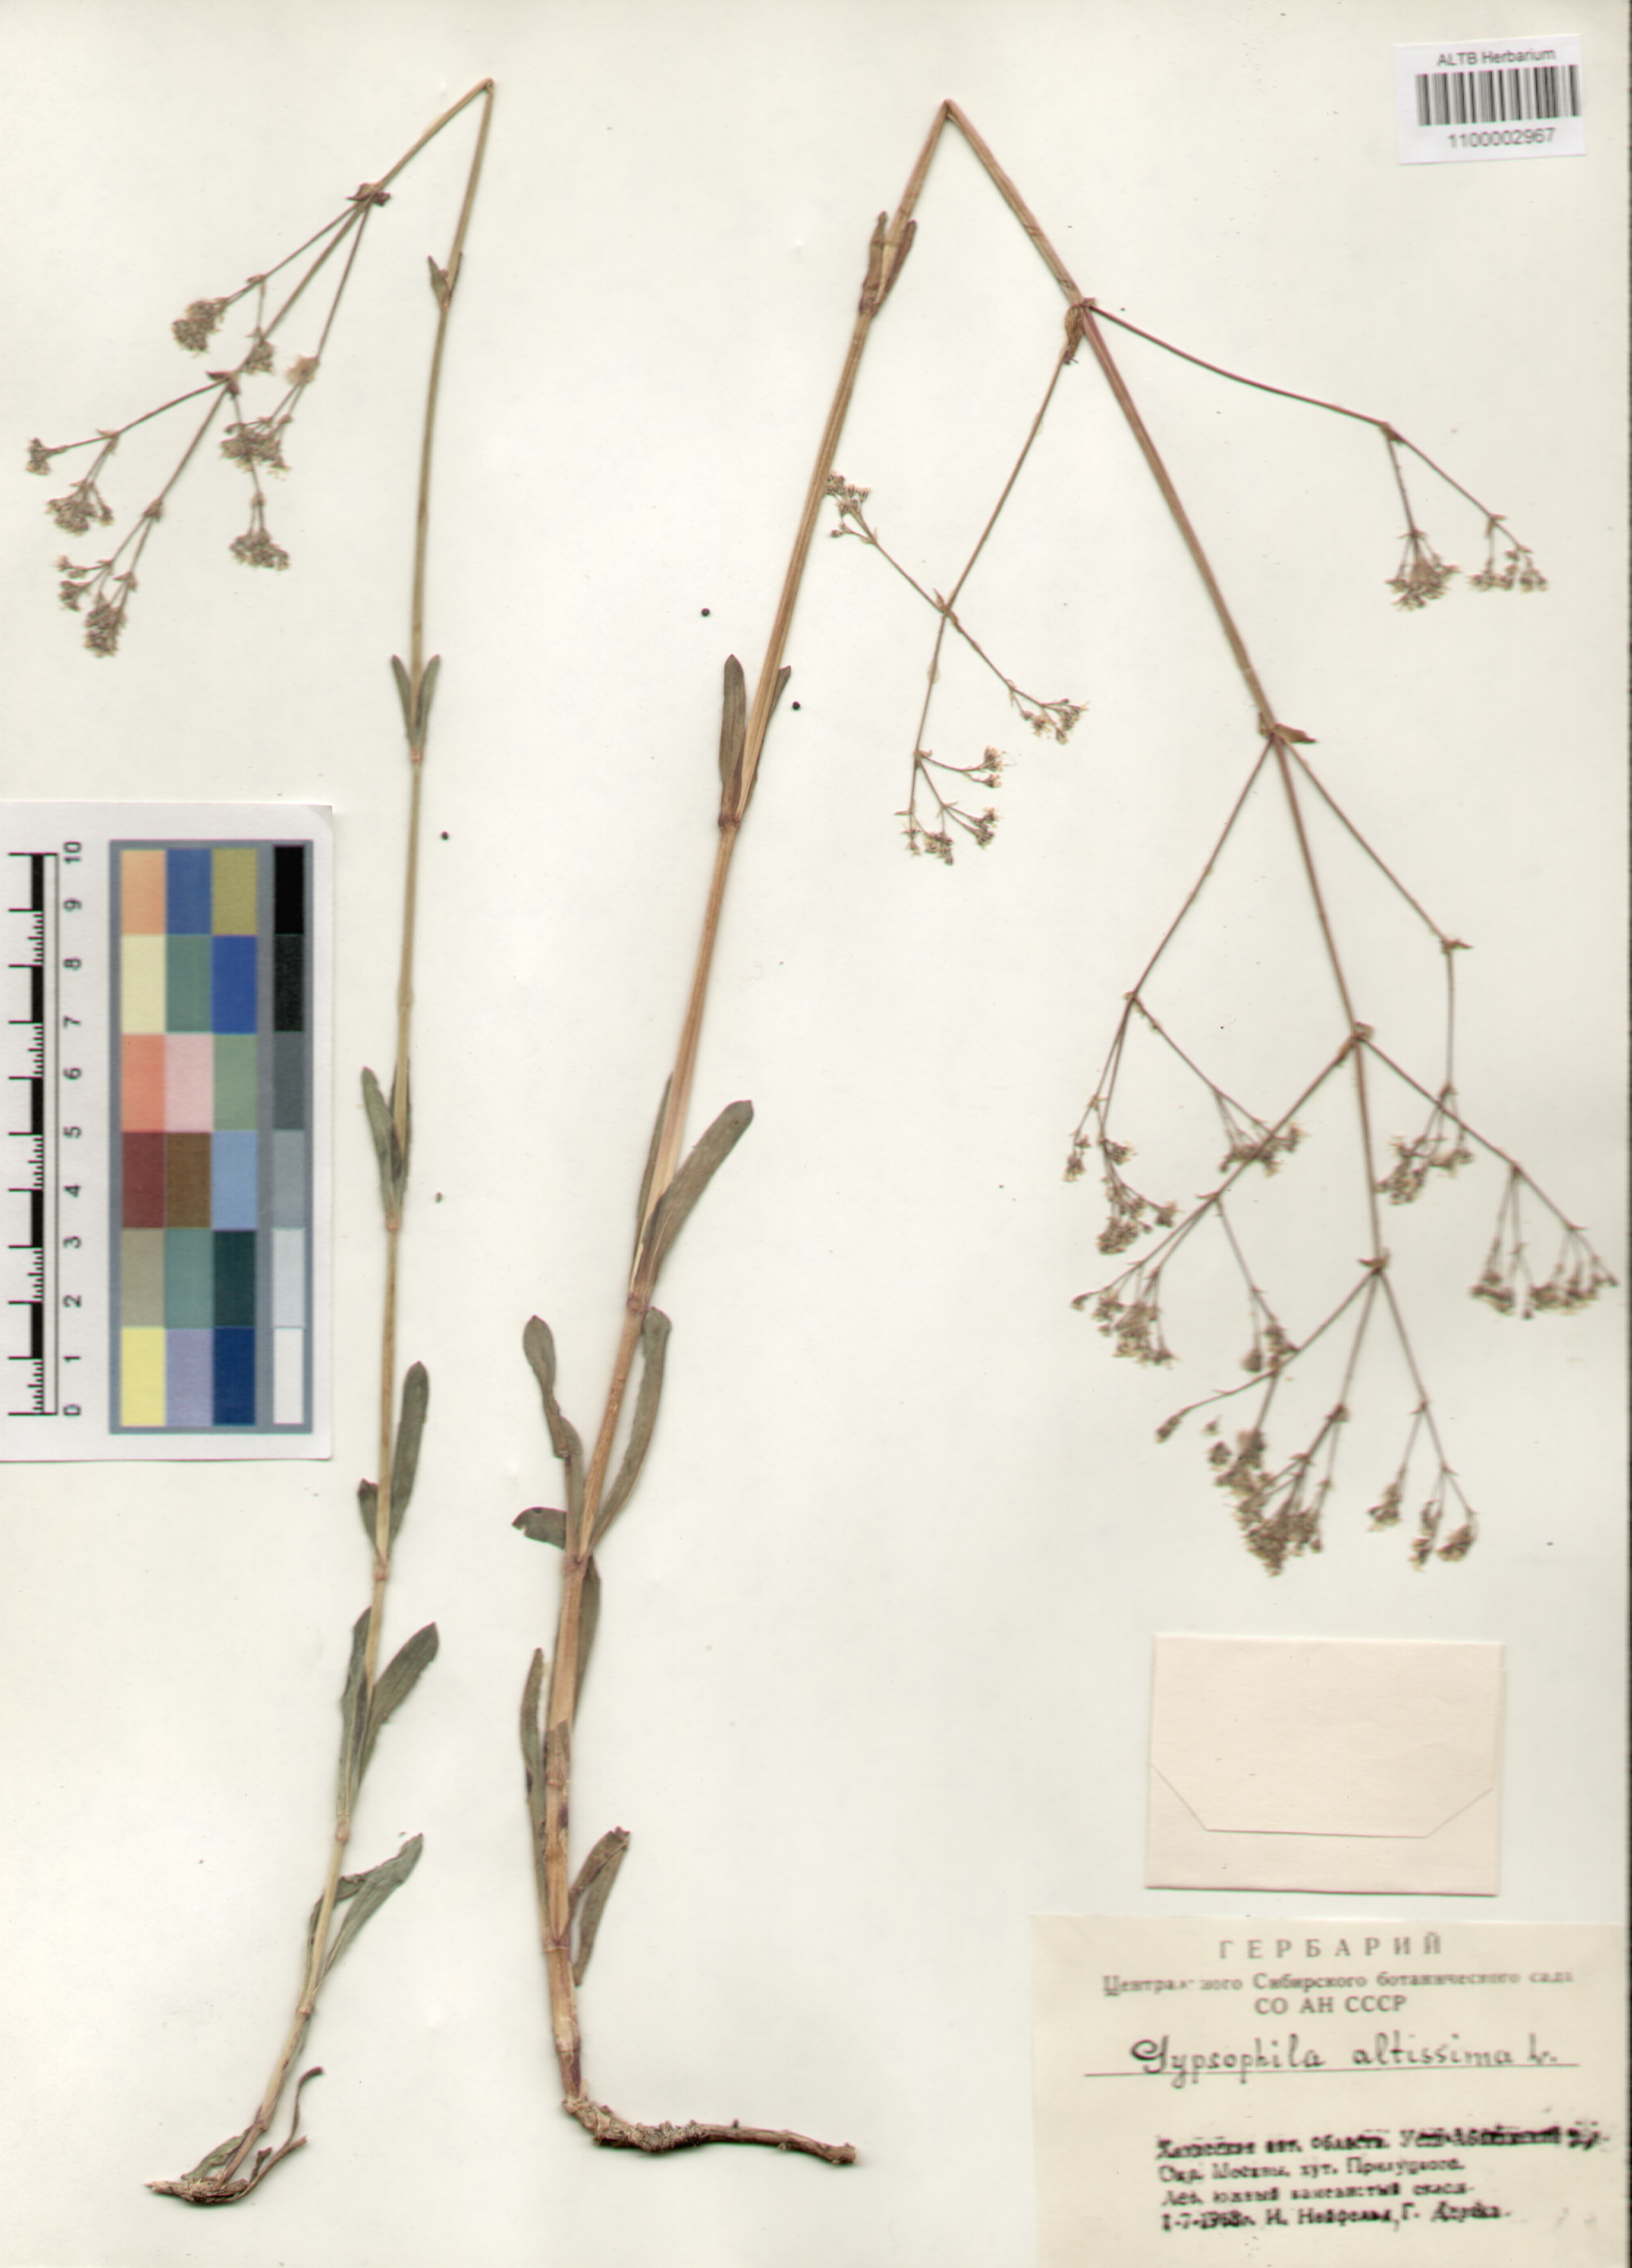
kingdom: Plantae
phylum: Tracheophyta
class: Magnoliopsida
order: Caryophyllales
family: Caryophyllaceae
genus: Gypsophila
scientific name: Gypsophila altissima
